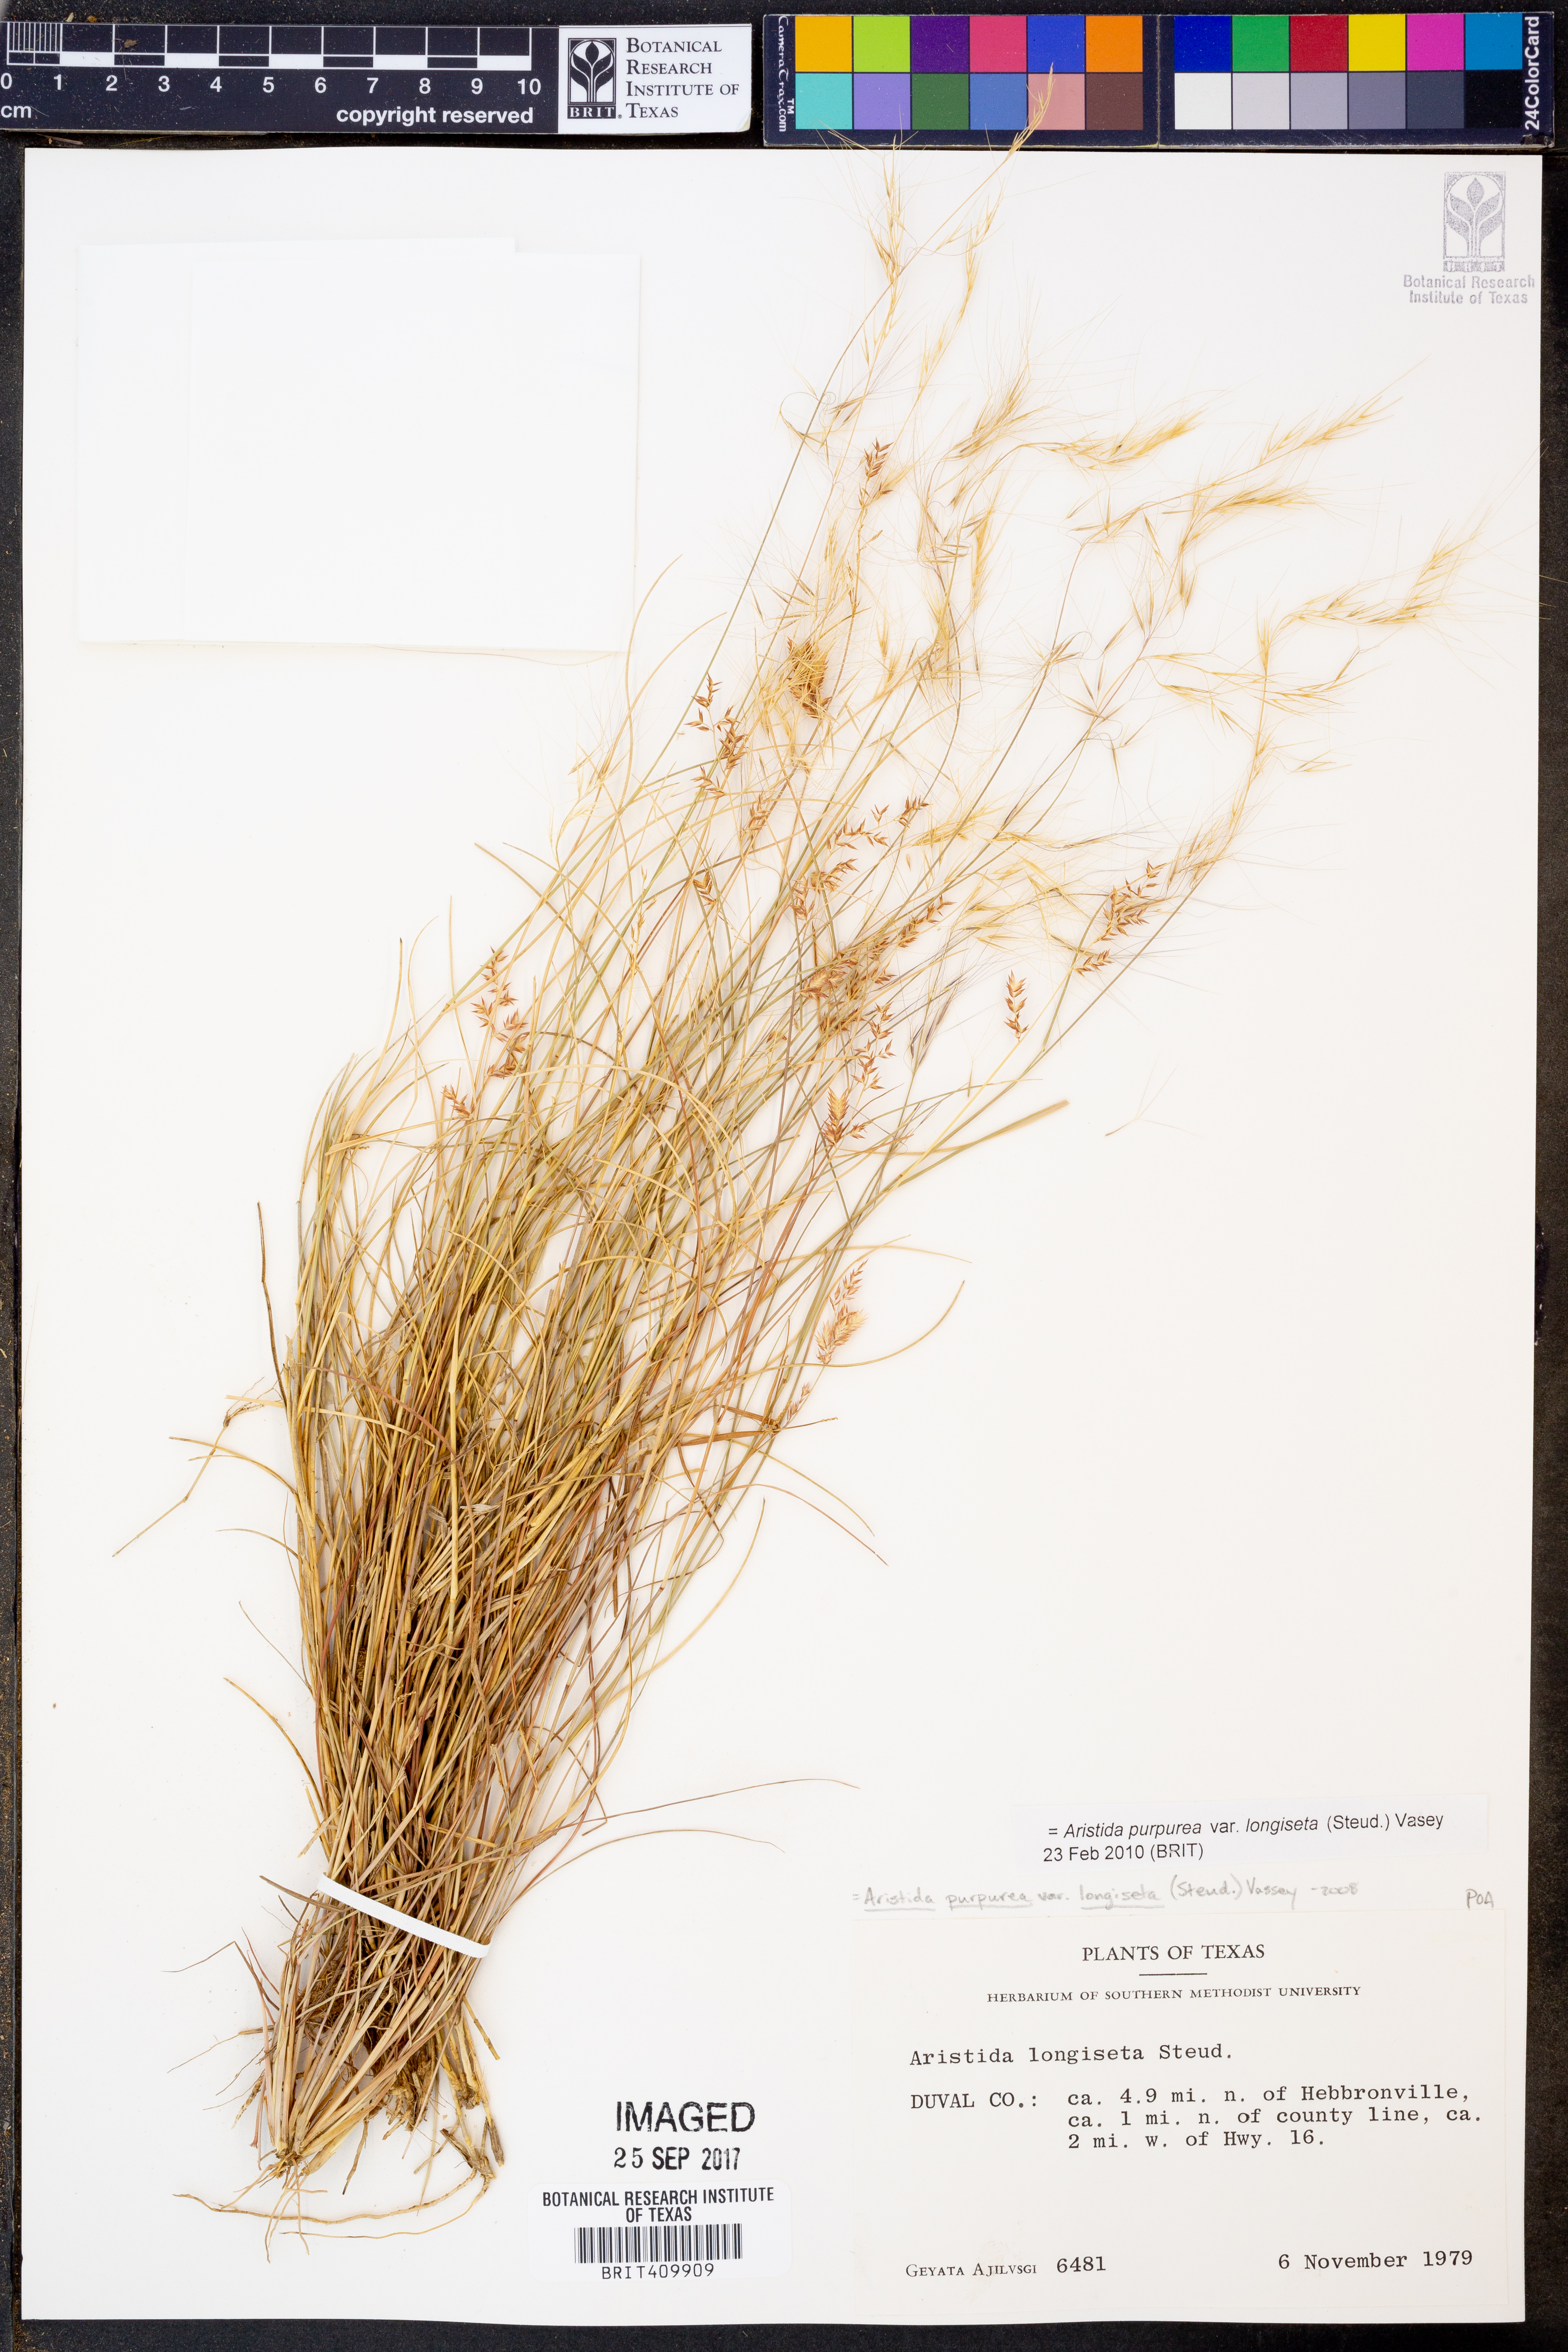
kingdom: Plantae
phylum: Tracheophyta
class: Liliopsida
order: Poales
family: Poaceae
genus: Aristida
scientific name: Aristida longiseta
